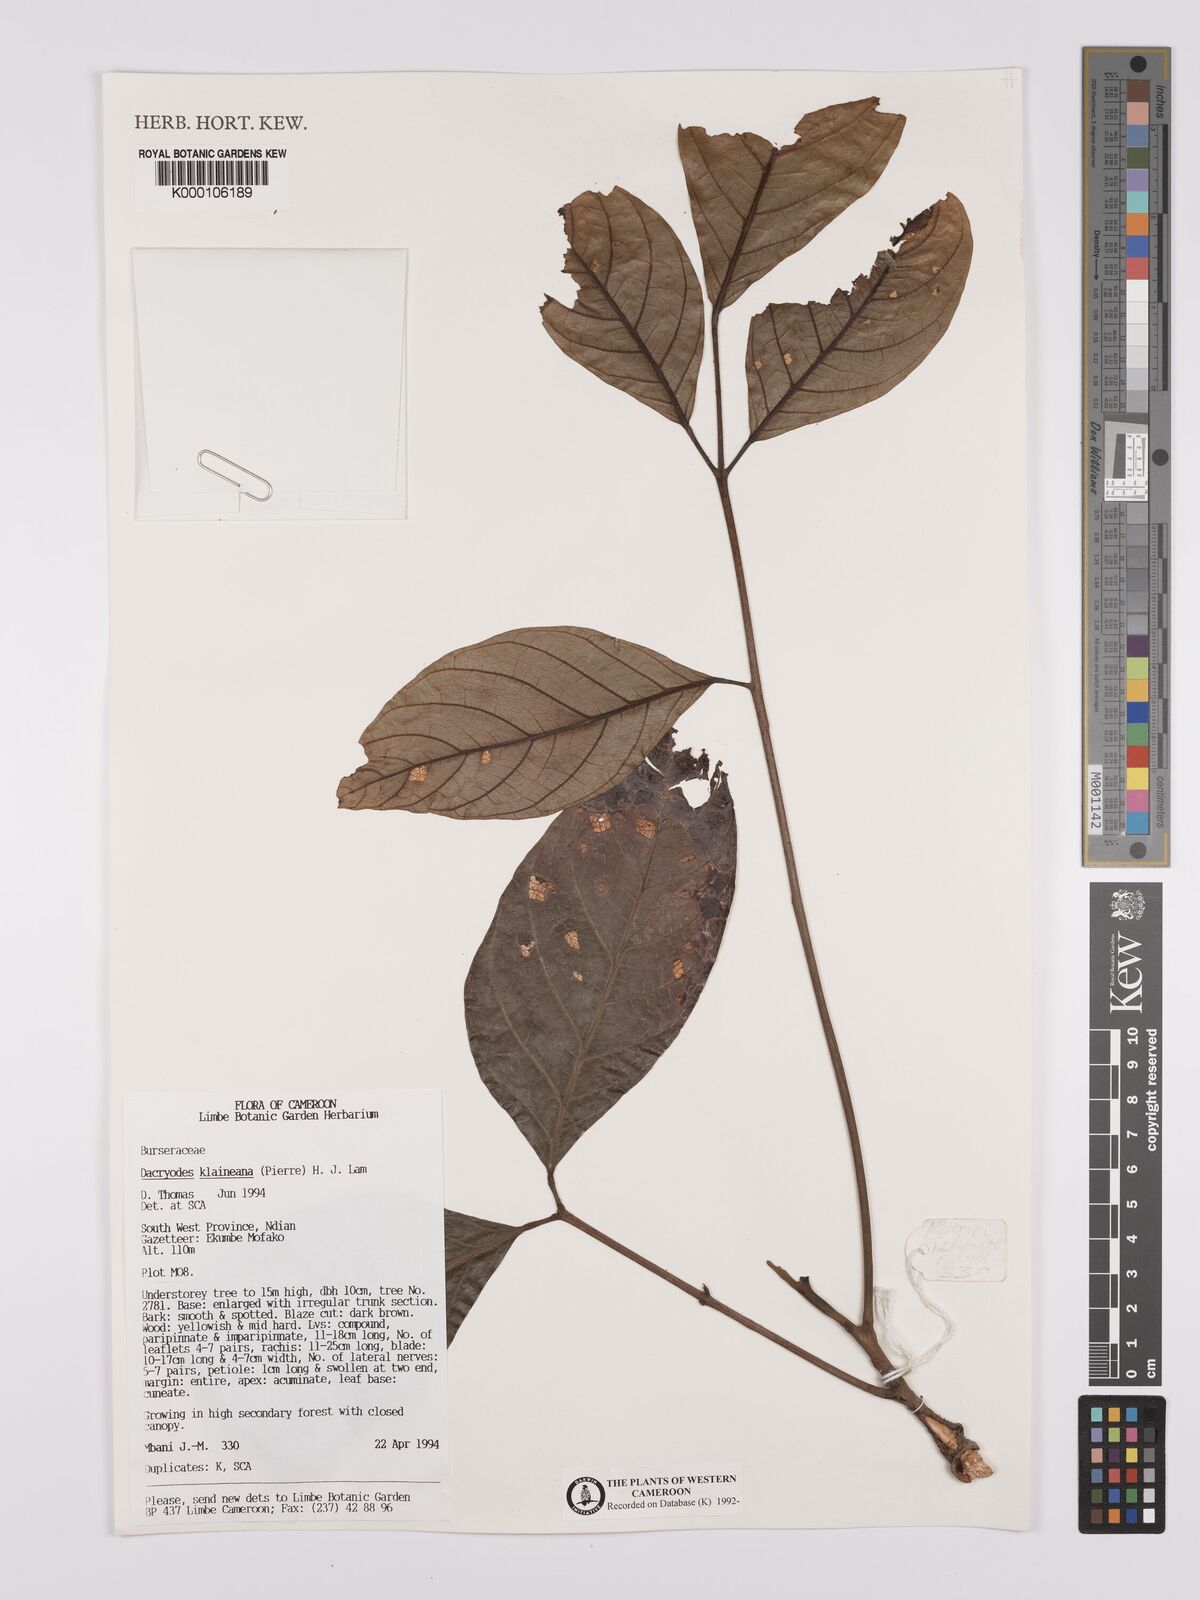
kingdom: Plantae
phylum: Tracheophyta
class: Magnoliopsida
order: Sapindales
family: Burseraceae
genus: Pachylobus
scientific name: Pachylobus klaineana
